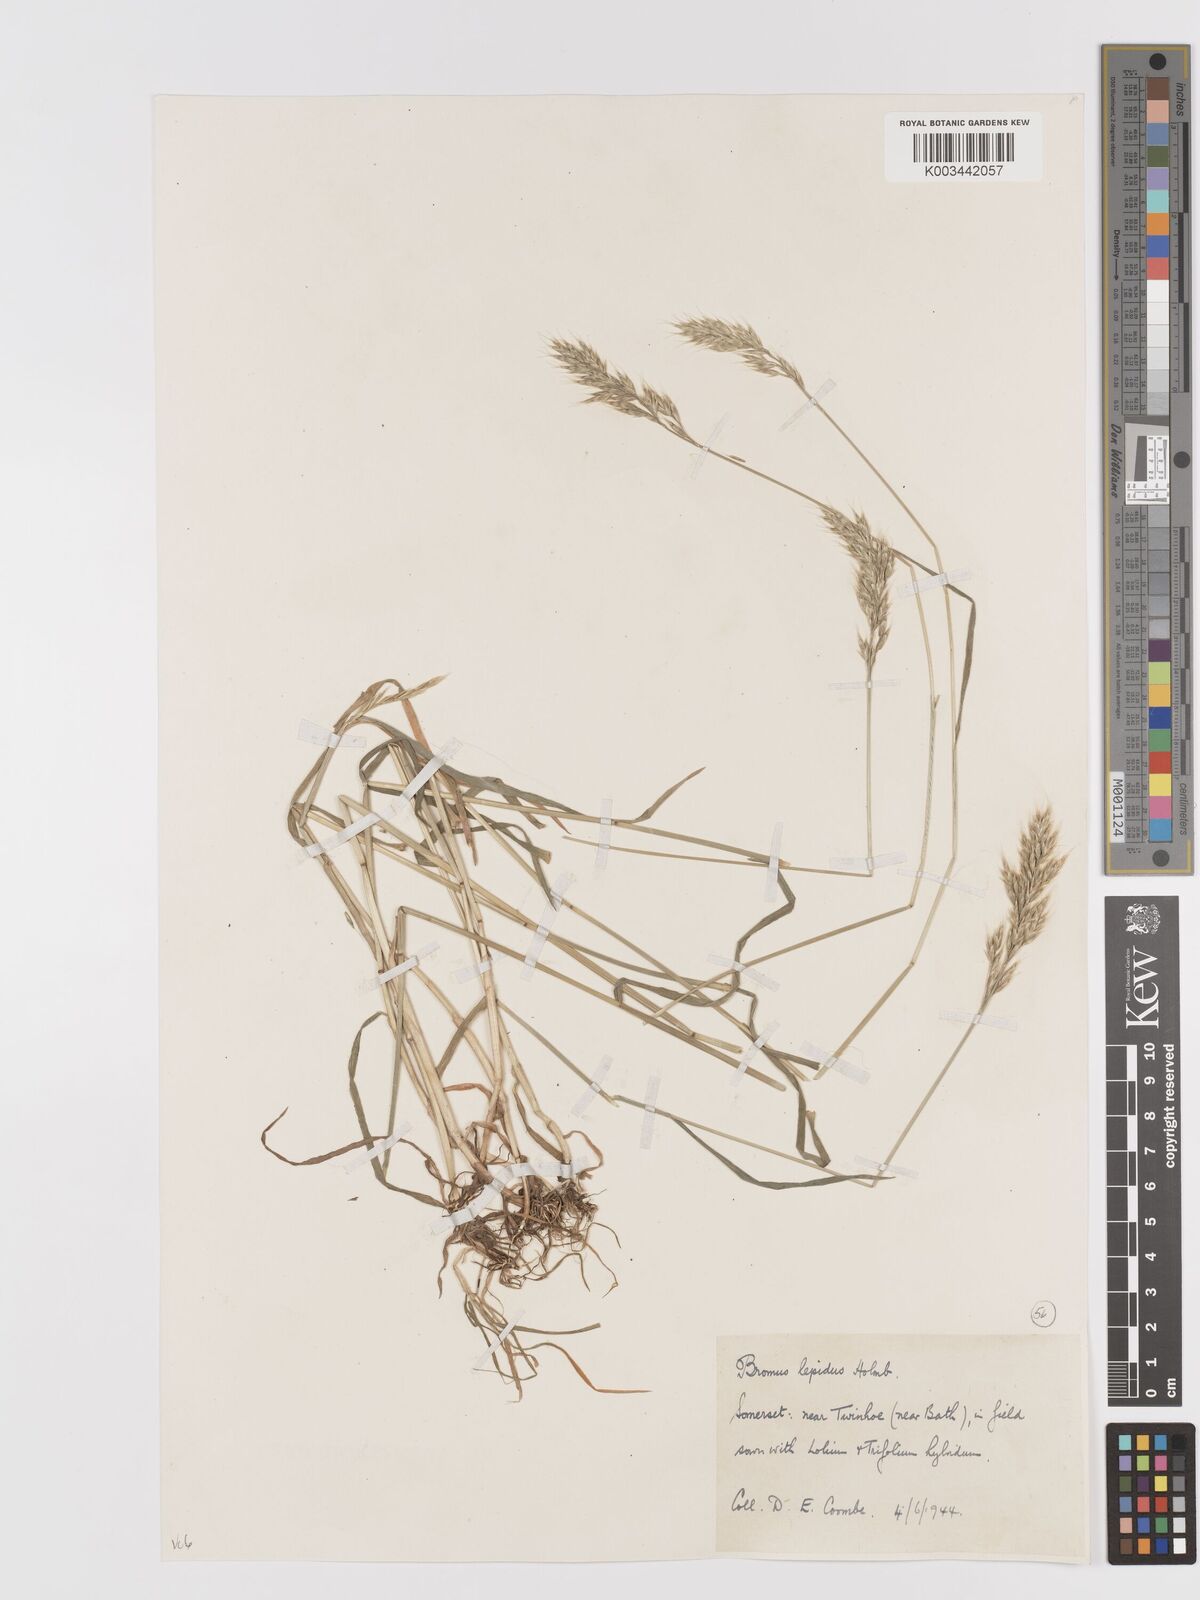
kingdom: Plantae
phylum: Tracheophyta
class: Liliopsida
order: Poales
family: Poaceae
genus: Bromus
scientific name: Bromus lepidus
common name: Slender soft-brome
